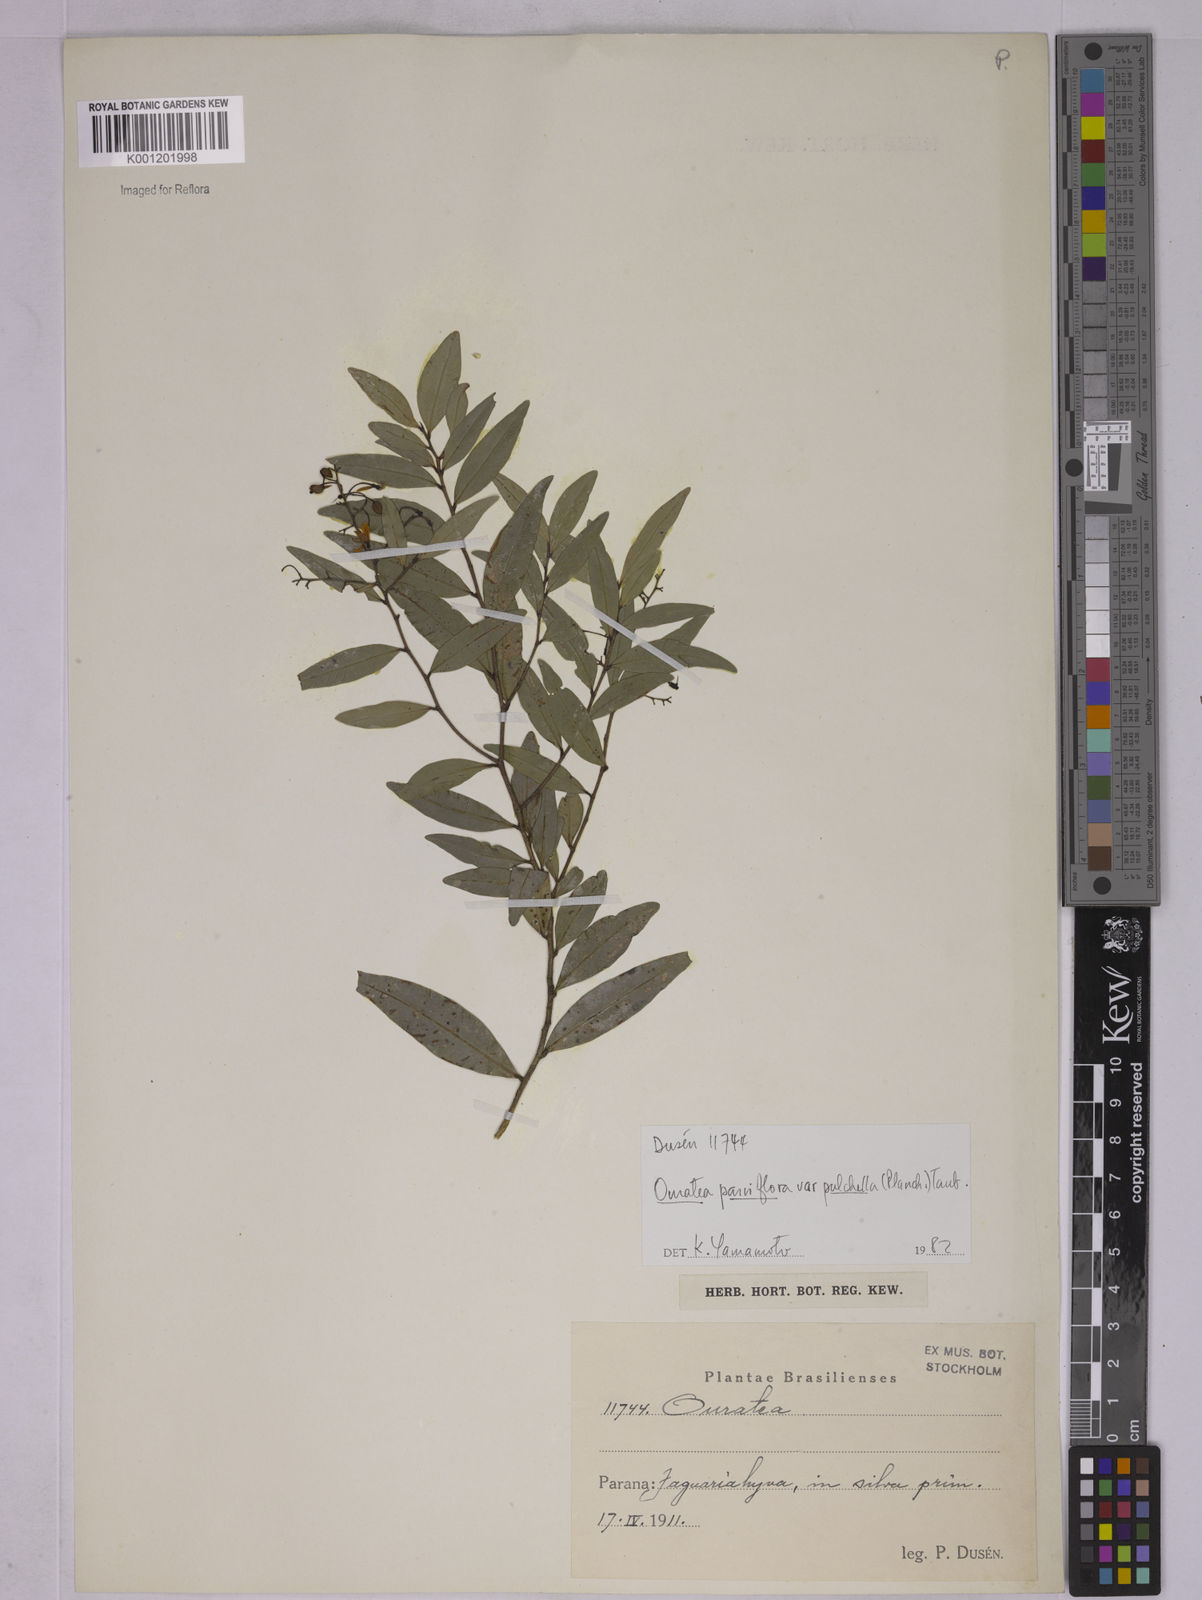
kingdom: Plantae
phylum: Tracheophyta
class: Magnoliopsida
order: Malpighiales
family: Ochnaceae
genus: Ouratea
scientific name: Ouratea parviflora
